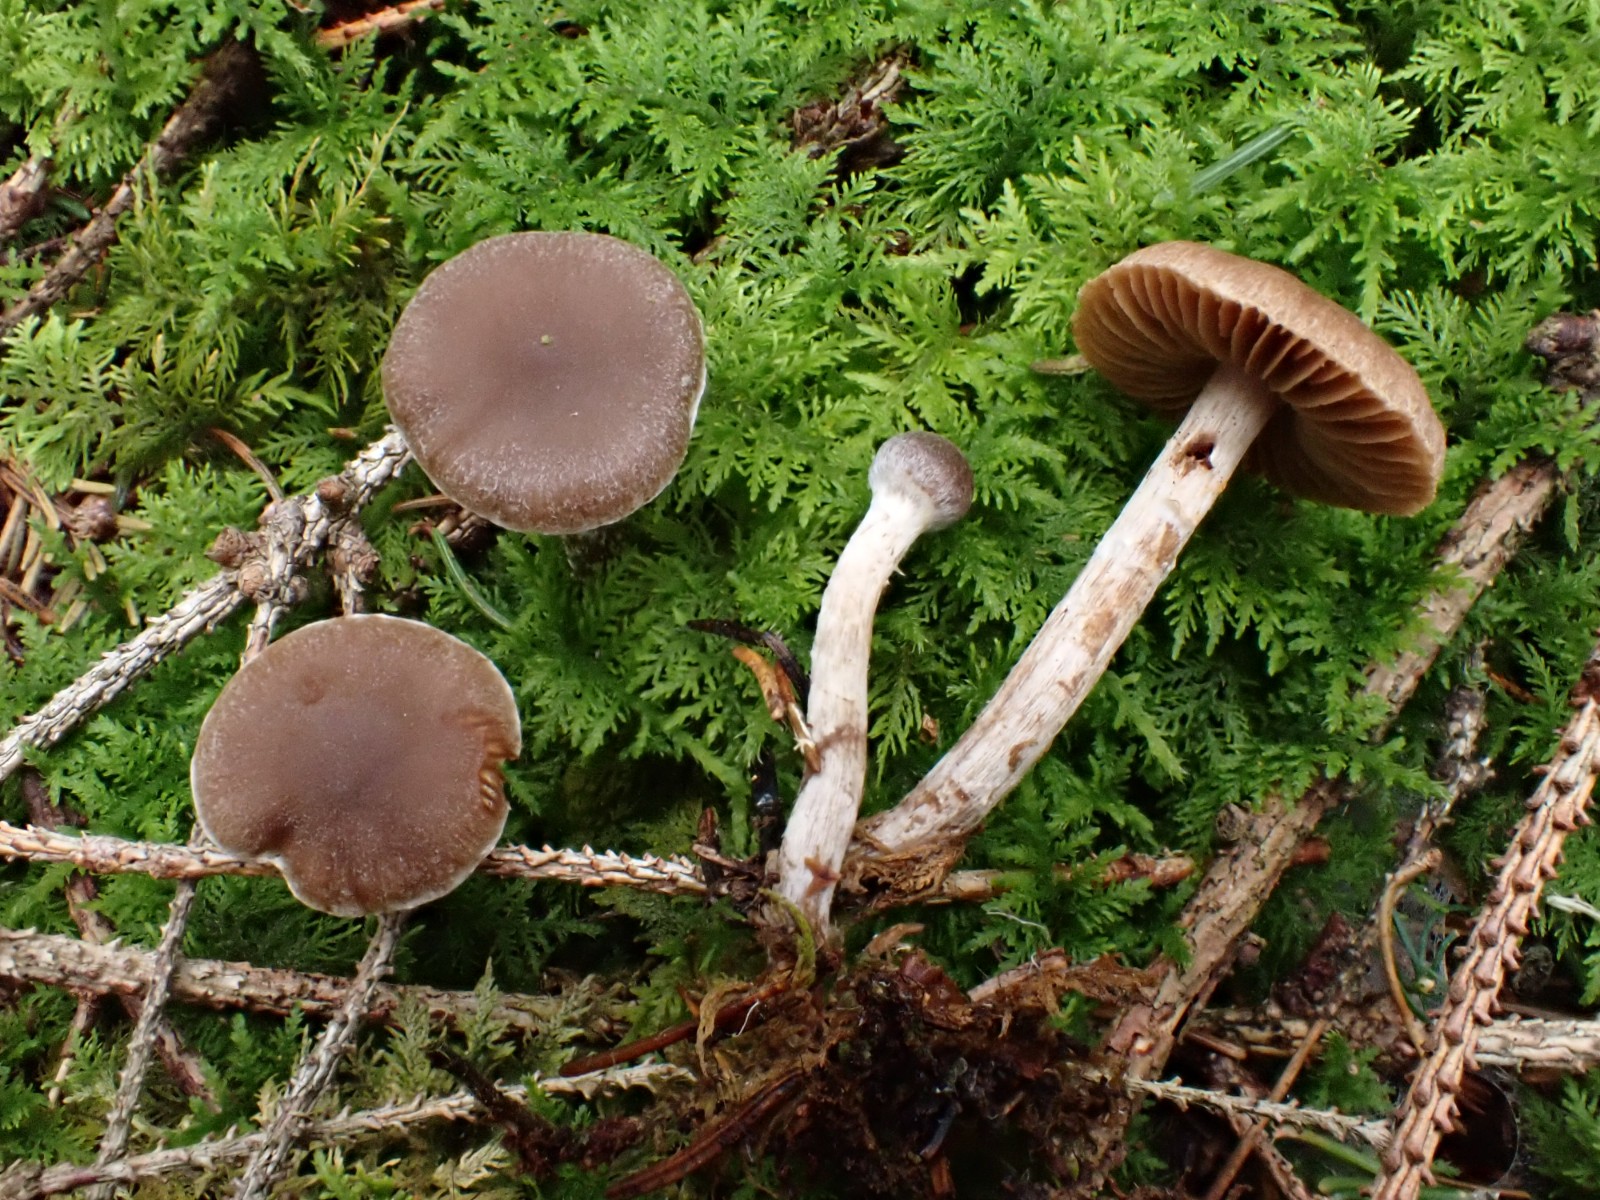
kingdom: Fungi
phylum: Basidiomycota
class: Agaricomycetes
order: Agaricales
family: Cortinariaceae
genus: Cortinarius
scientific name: Cortinarius
